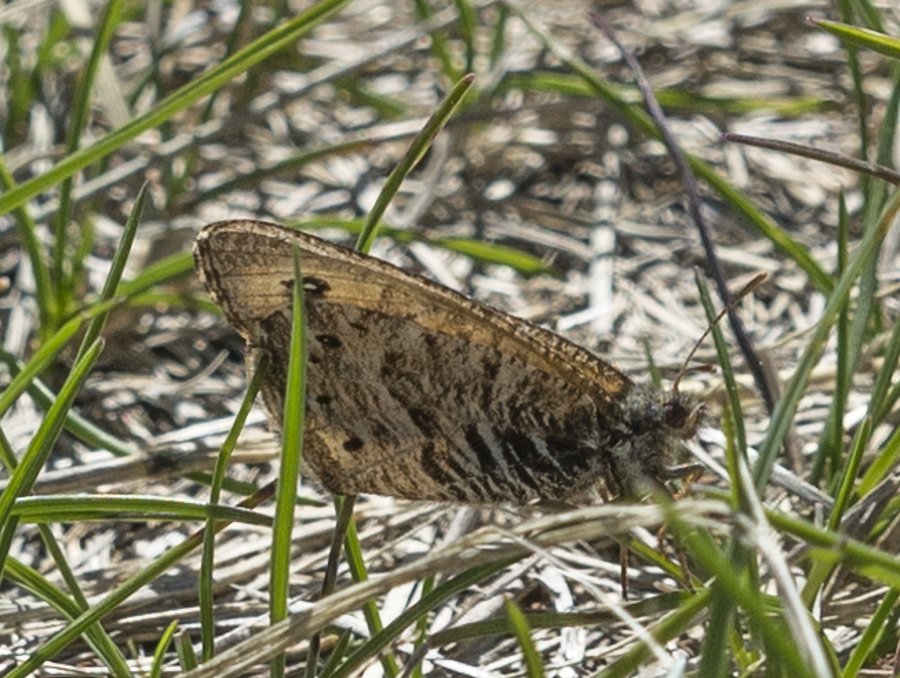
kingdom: Animalia
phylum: Arthropoda
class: Insecta
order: Lepidoptera
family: Nymphalidae
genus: Oeneis
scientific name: Oeneis uhleri
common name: Uhler's Arctic
